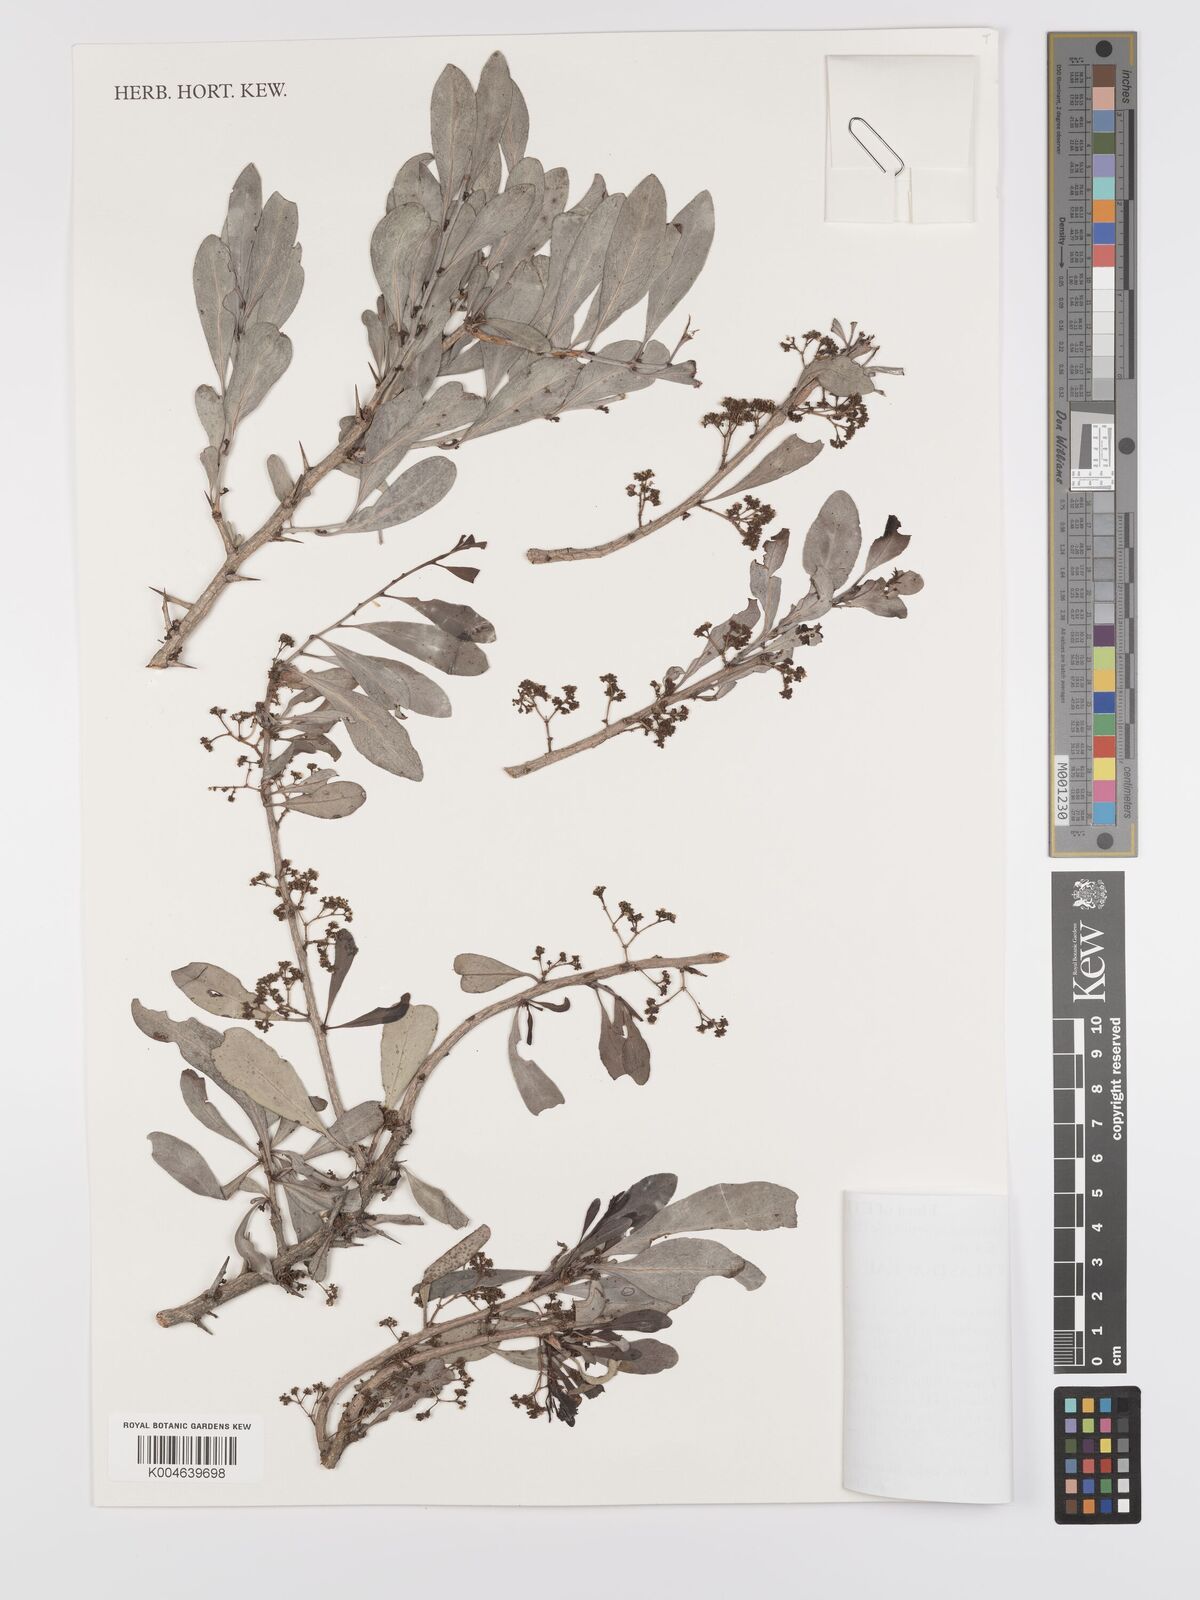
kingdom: Plantae
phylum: Tracheophyta
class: Magnoliopsida
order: Celastrales
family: Celastraceae
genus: Gymnosporia
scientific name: Gymnosporia heterophylla
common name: Angle-stem spikethorn
